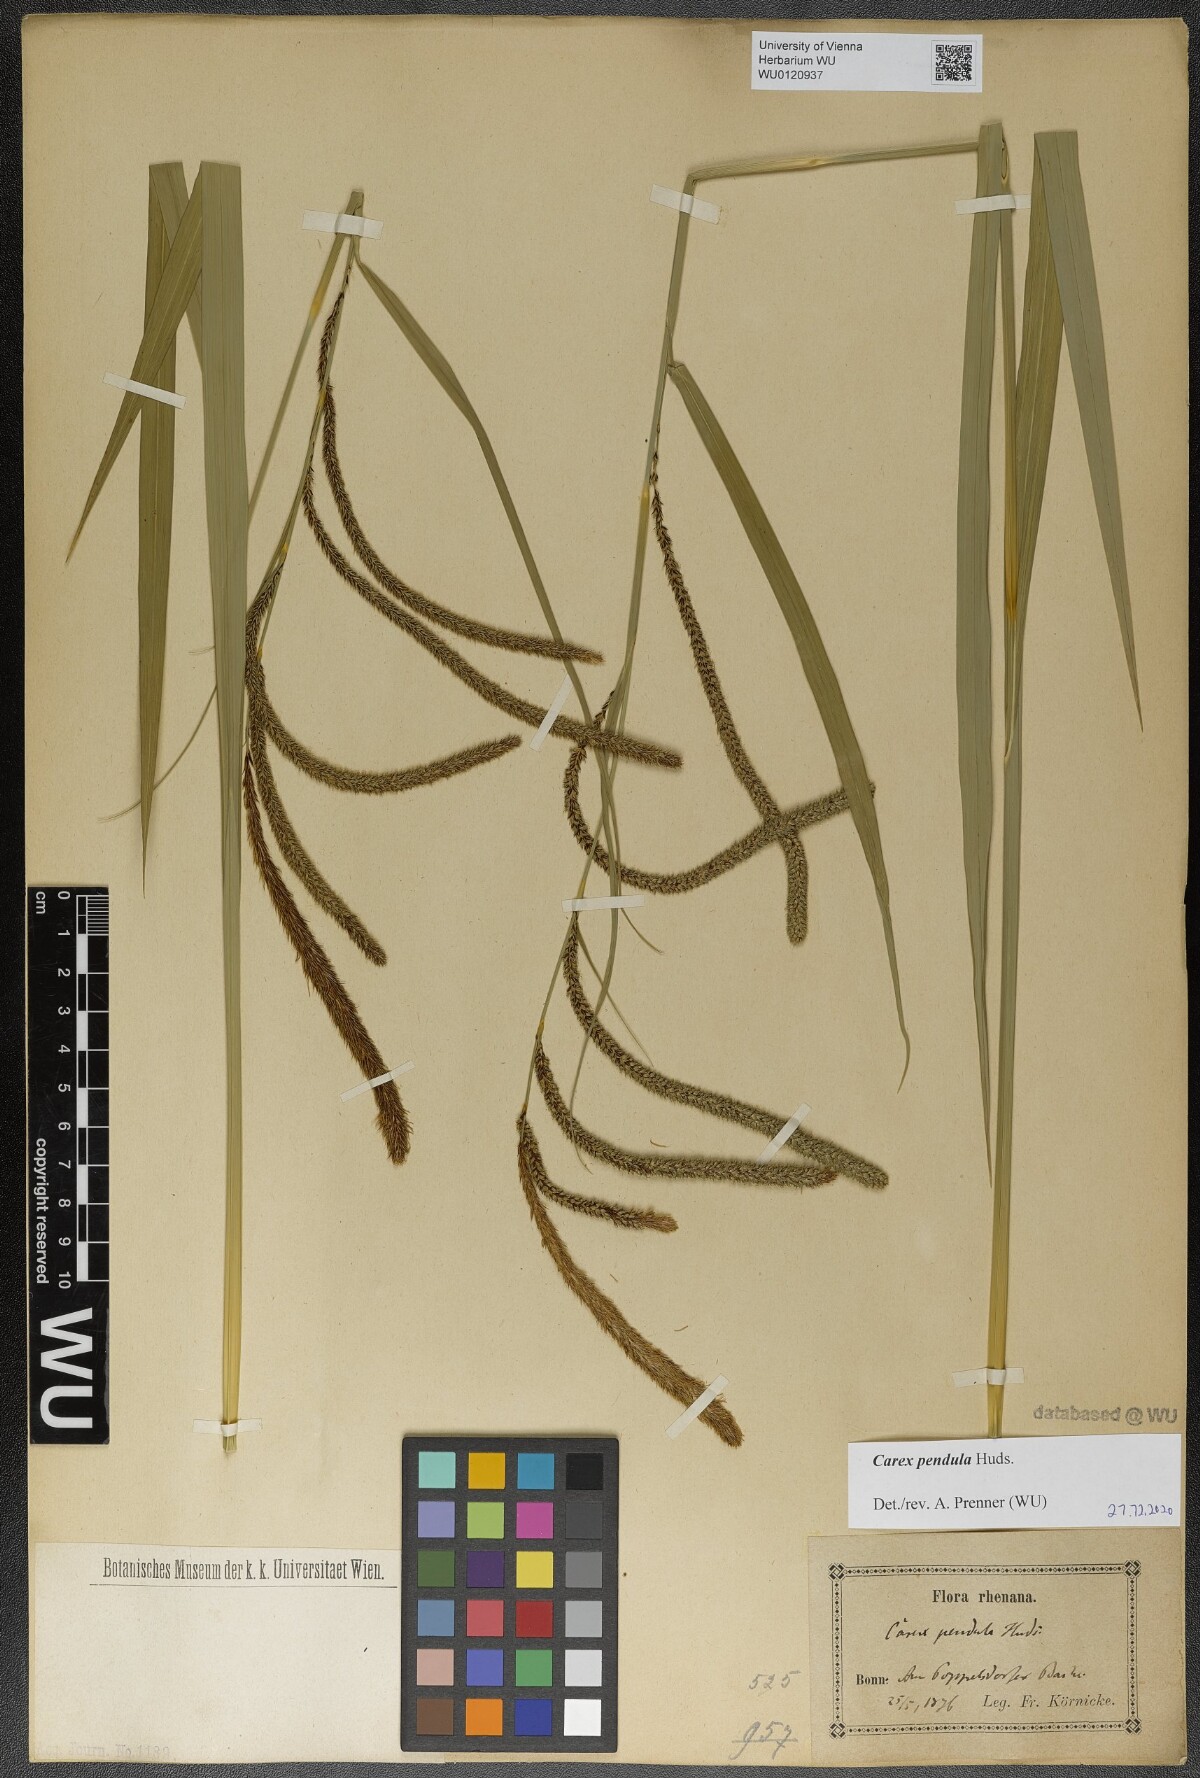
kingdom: Plantae
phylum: Tracheophyta
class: Liliopsida
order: Poales
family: Cyperaceae
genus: Carex
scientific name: Carex pendula
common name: Pendulous sedge
